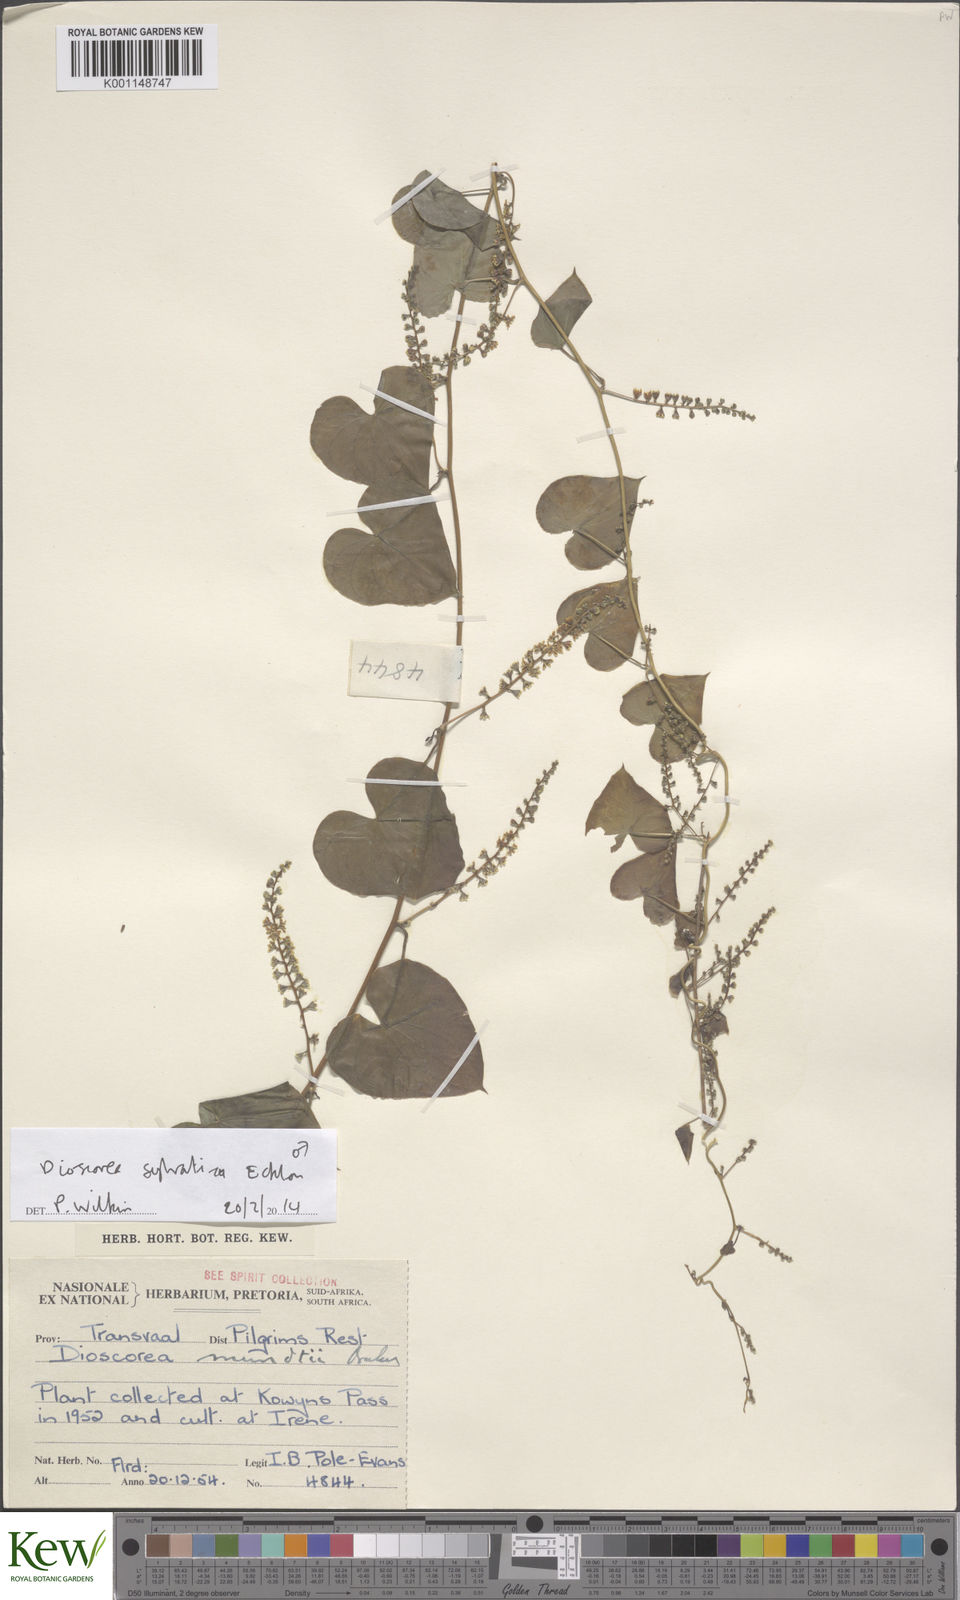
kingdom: Plantae
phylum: Tracheophyta
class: Liliopsida
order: Dioscoreales
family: Dioscoreaceae
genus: Dioscorea
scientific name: Dioscorea sylvatica
